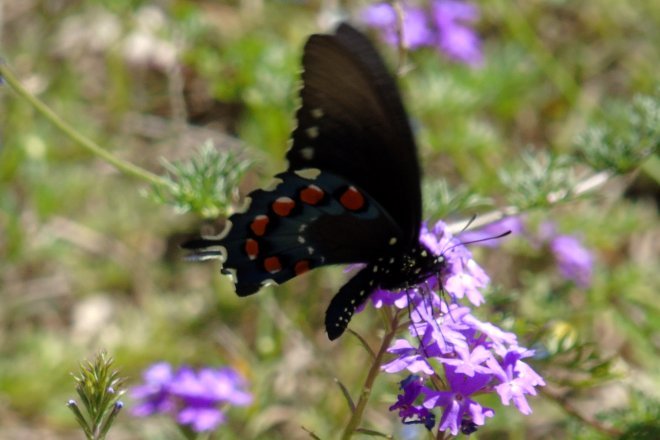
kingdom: Animalia
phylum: Arthropoda
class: Insecta
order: Lepidoptera
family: Papilionidae
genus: Battus
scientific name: Battus philenor
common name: Pipevine Swallowtail
